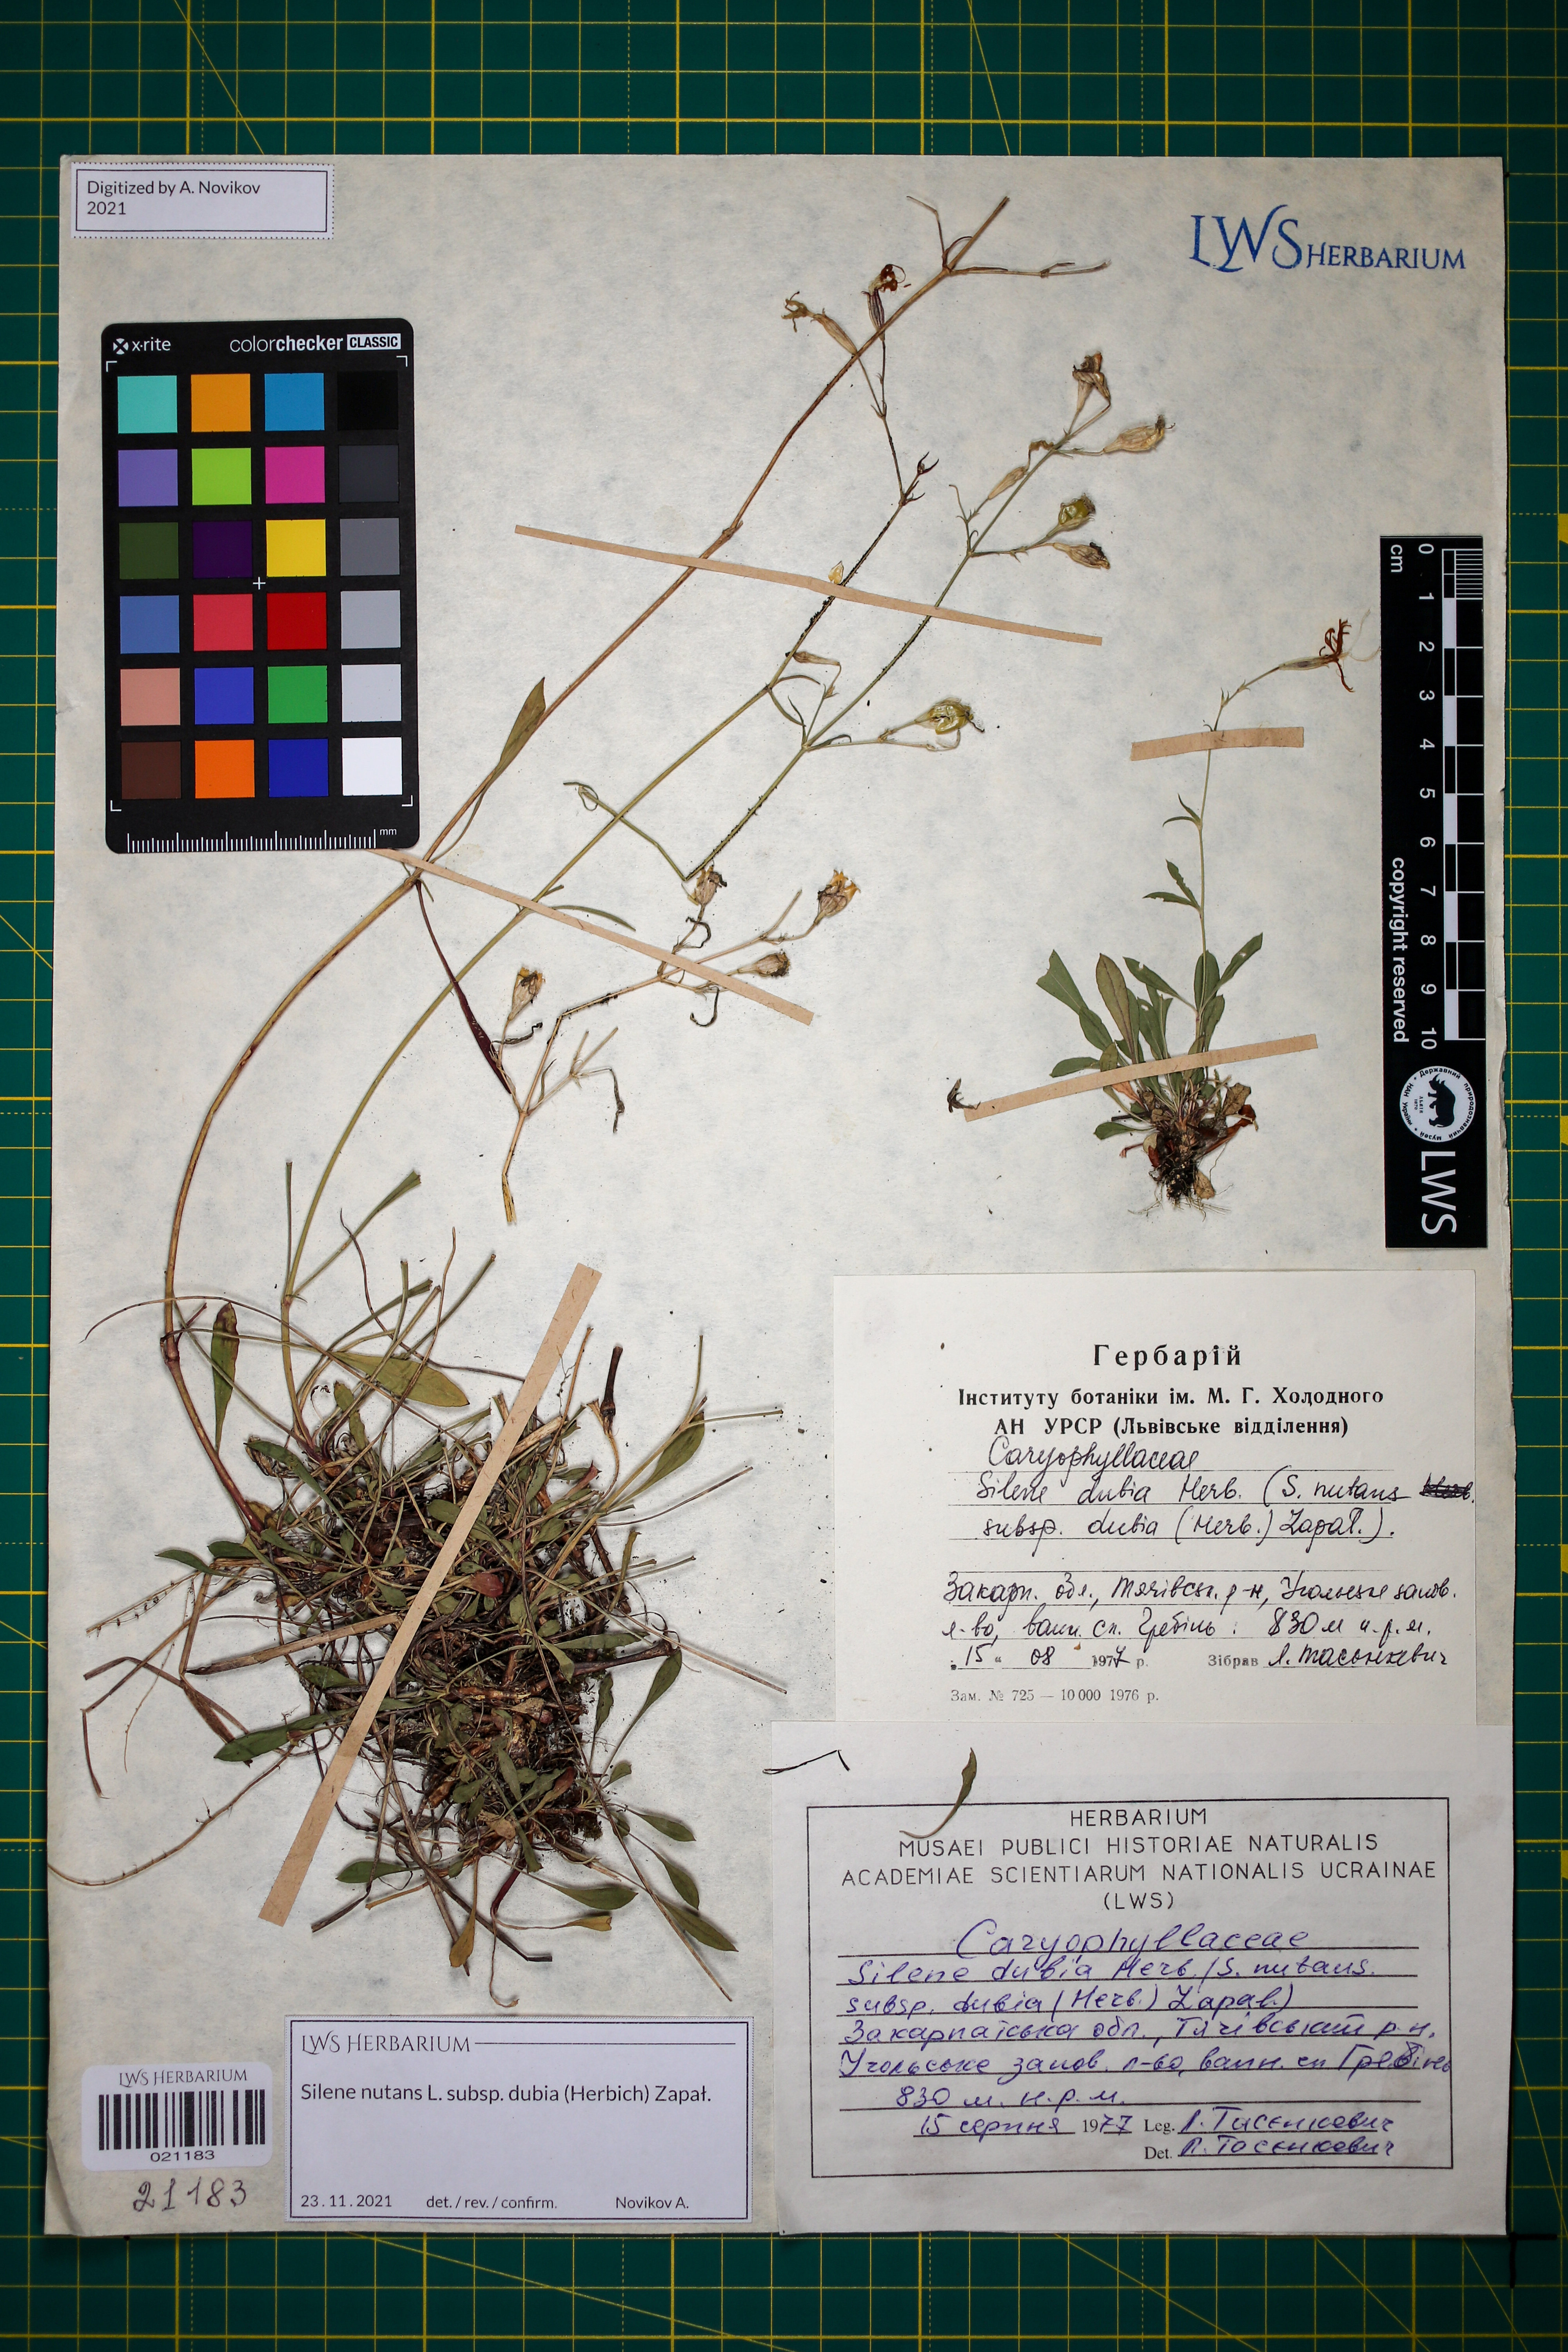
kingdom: Plantae
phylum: Tracheophyta
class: Magnoliopsida
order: Caryophyllales
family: Caryophyllaceae
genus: Silene
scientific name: Silene nutans
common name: Nottingham catchfly
